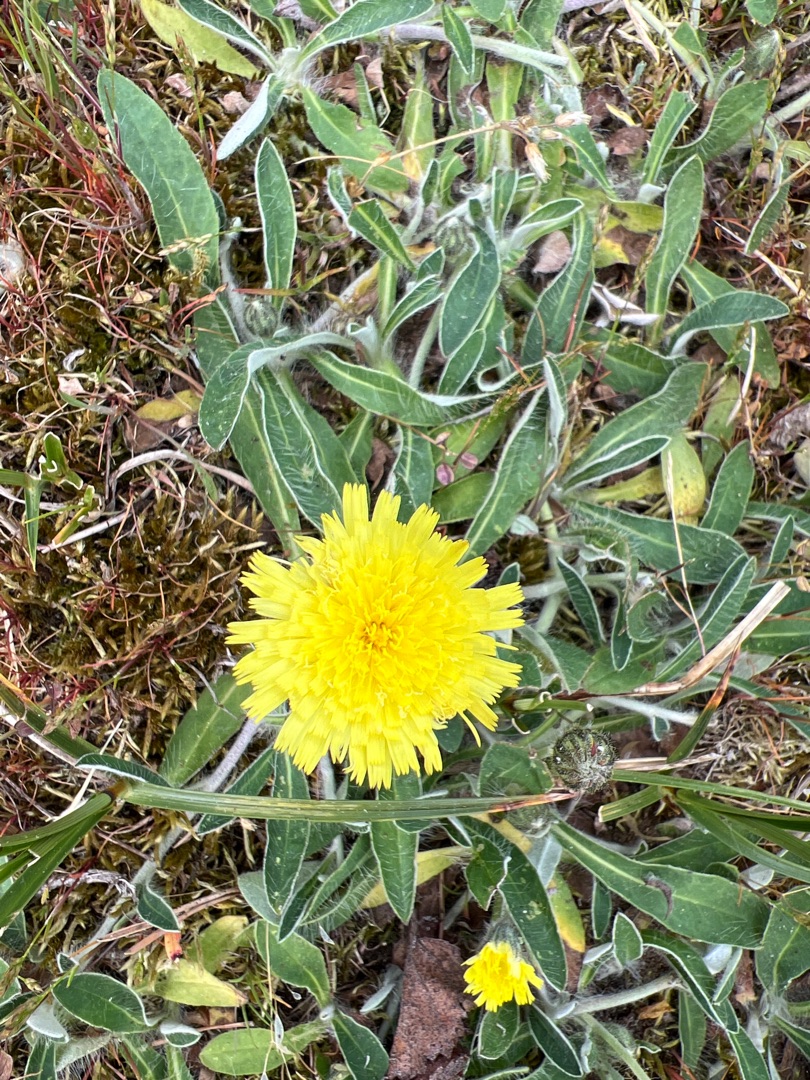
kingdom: Plantae
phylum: Tracheophyta
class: Magnoliopsida
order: Asterales
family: Asteraceae
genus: Pilosella
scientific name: Pilosella officinarum
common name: Håret høgeurt
